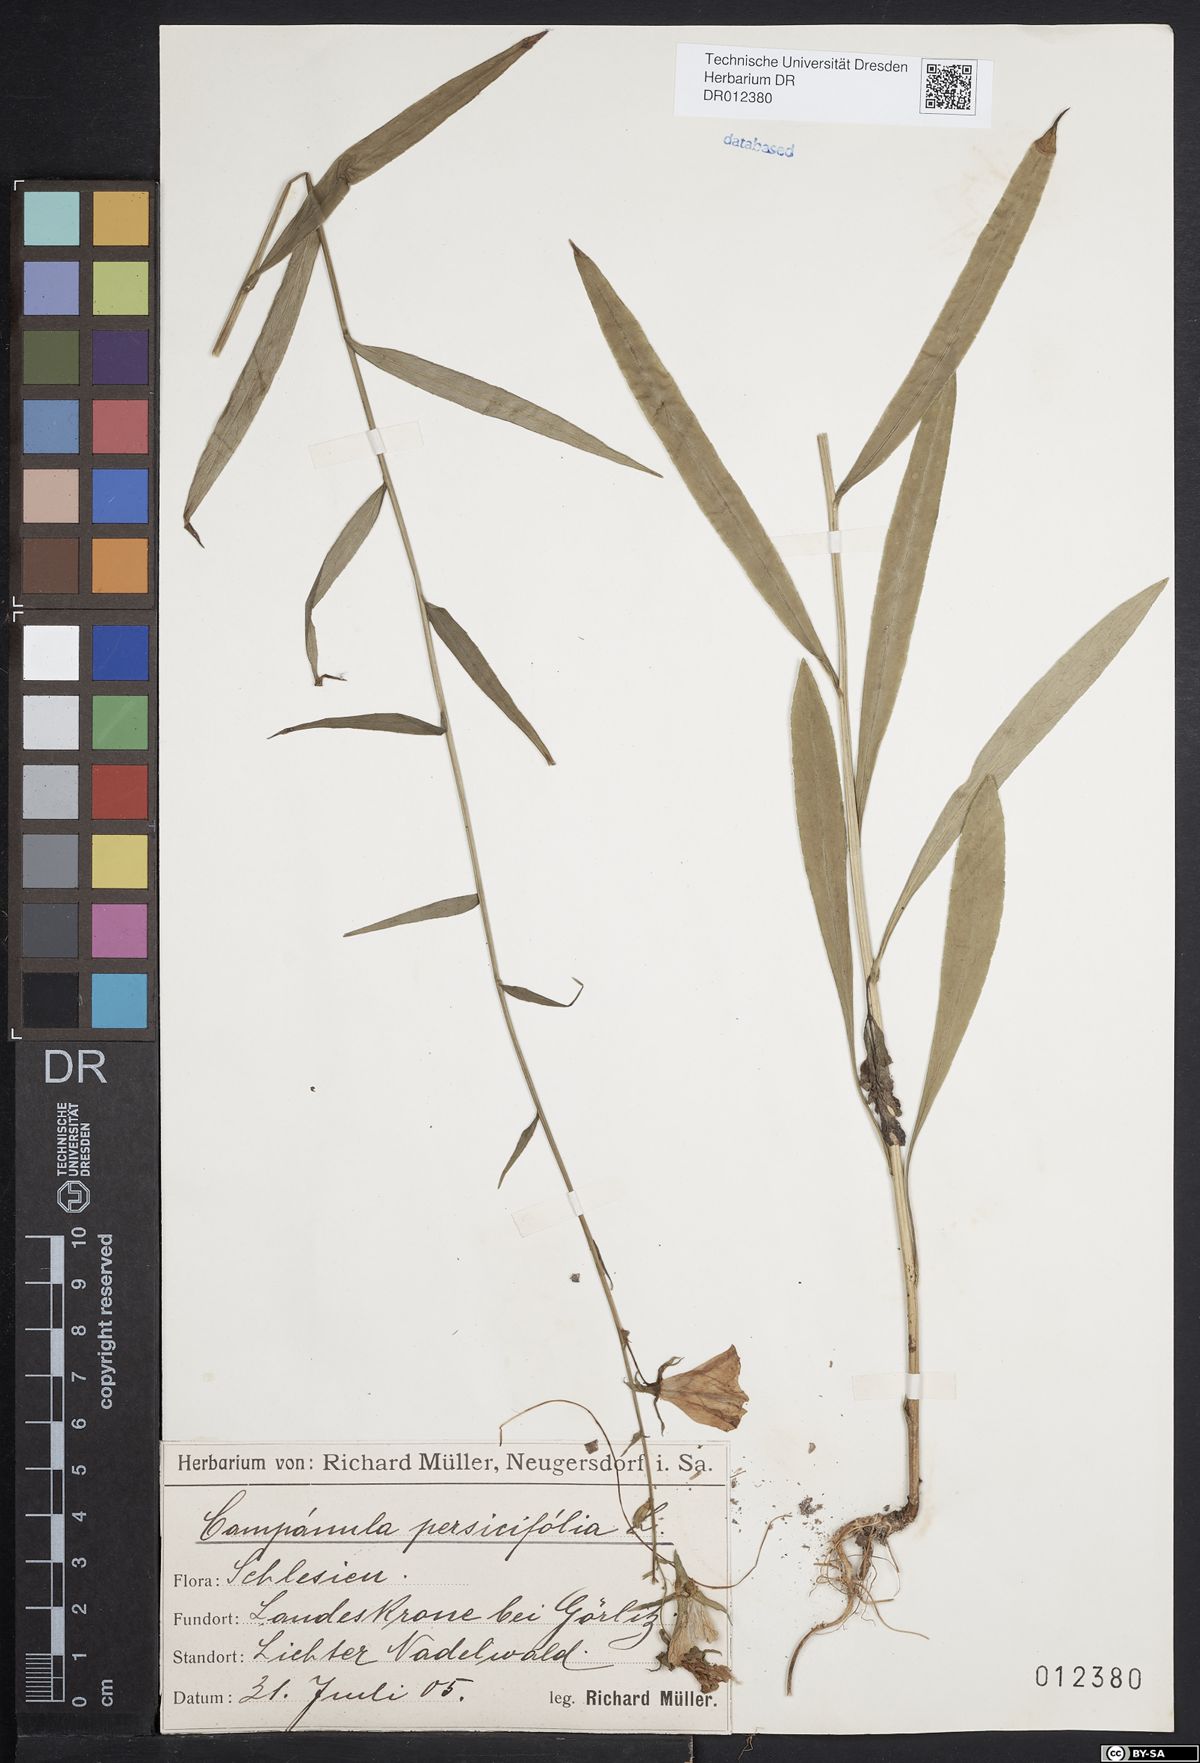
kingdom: Plantae
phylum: Tracheophyta
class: Magnoliopsida
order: Asterales
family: Campanulaceae
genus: Campanula
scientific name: Campanula persicifolia
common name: Peach-leaved bellflower
